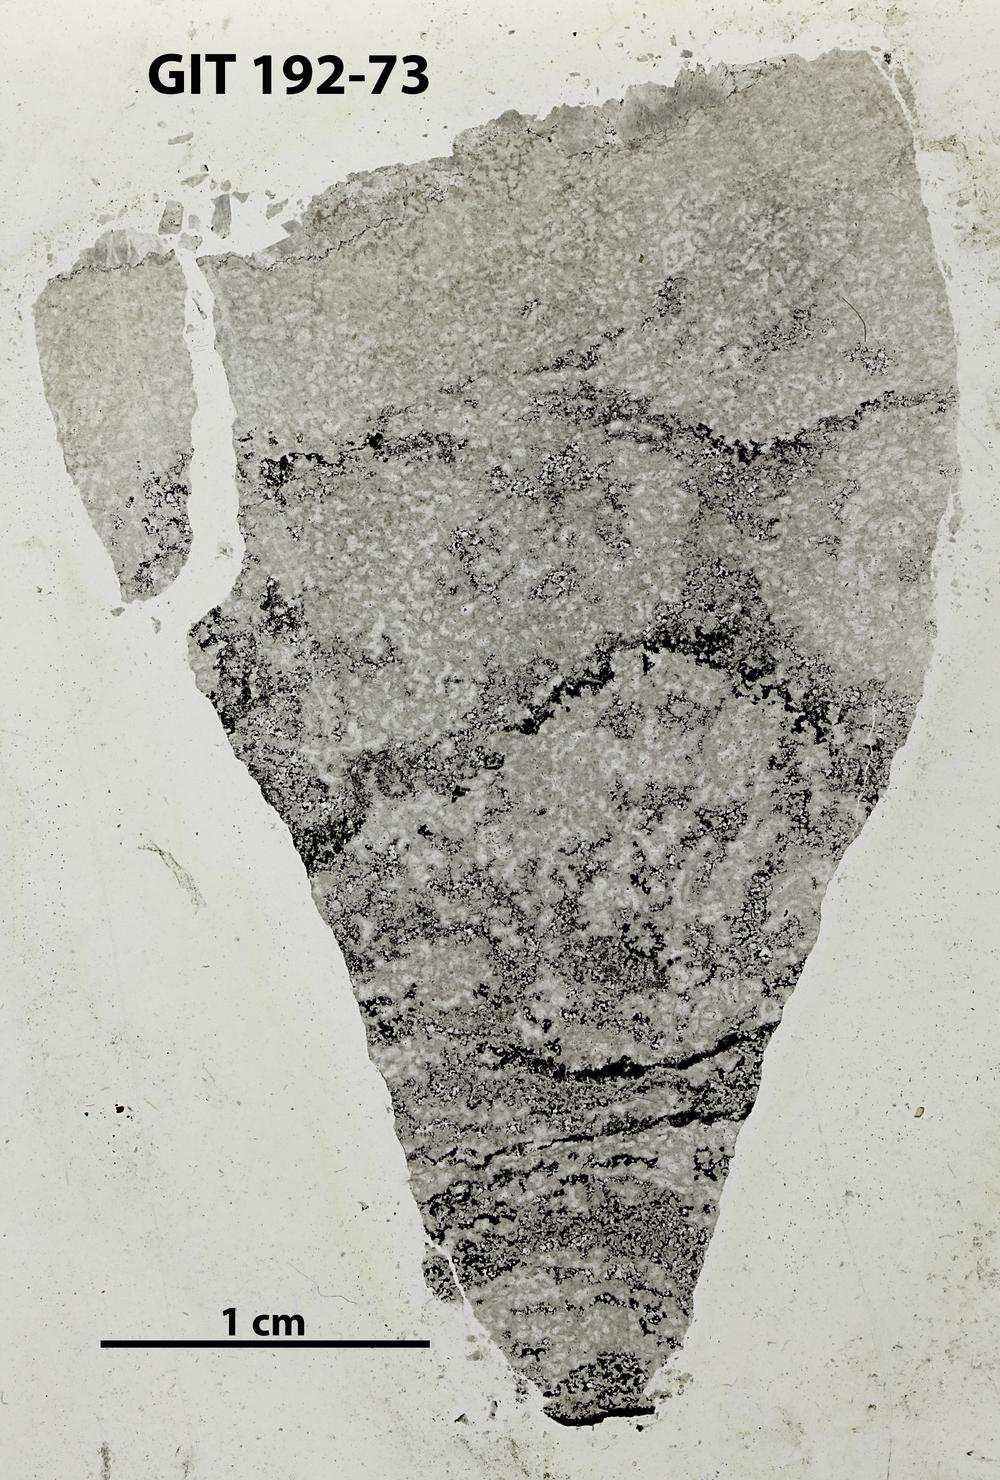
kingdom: Animalia
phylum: Porifera
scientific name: Porifera
